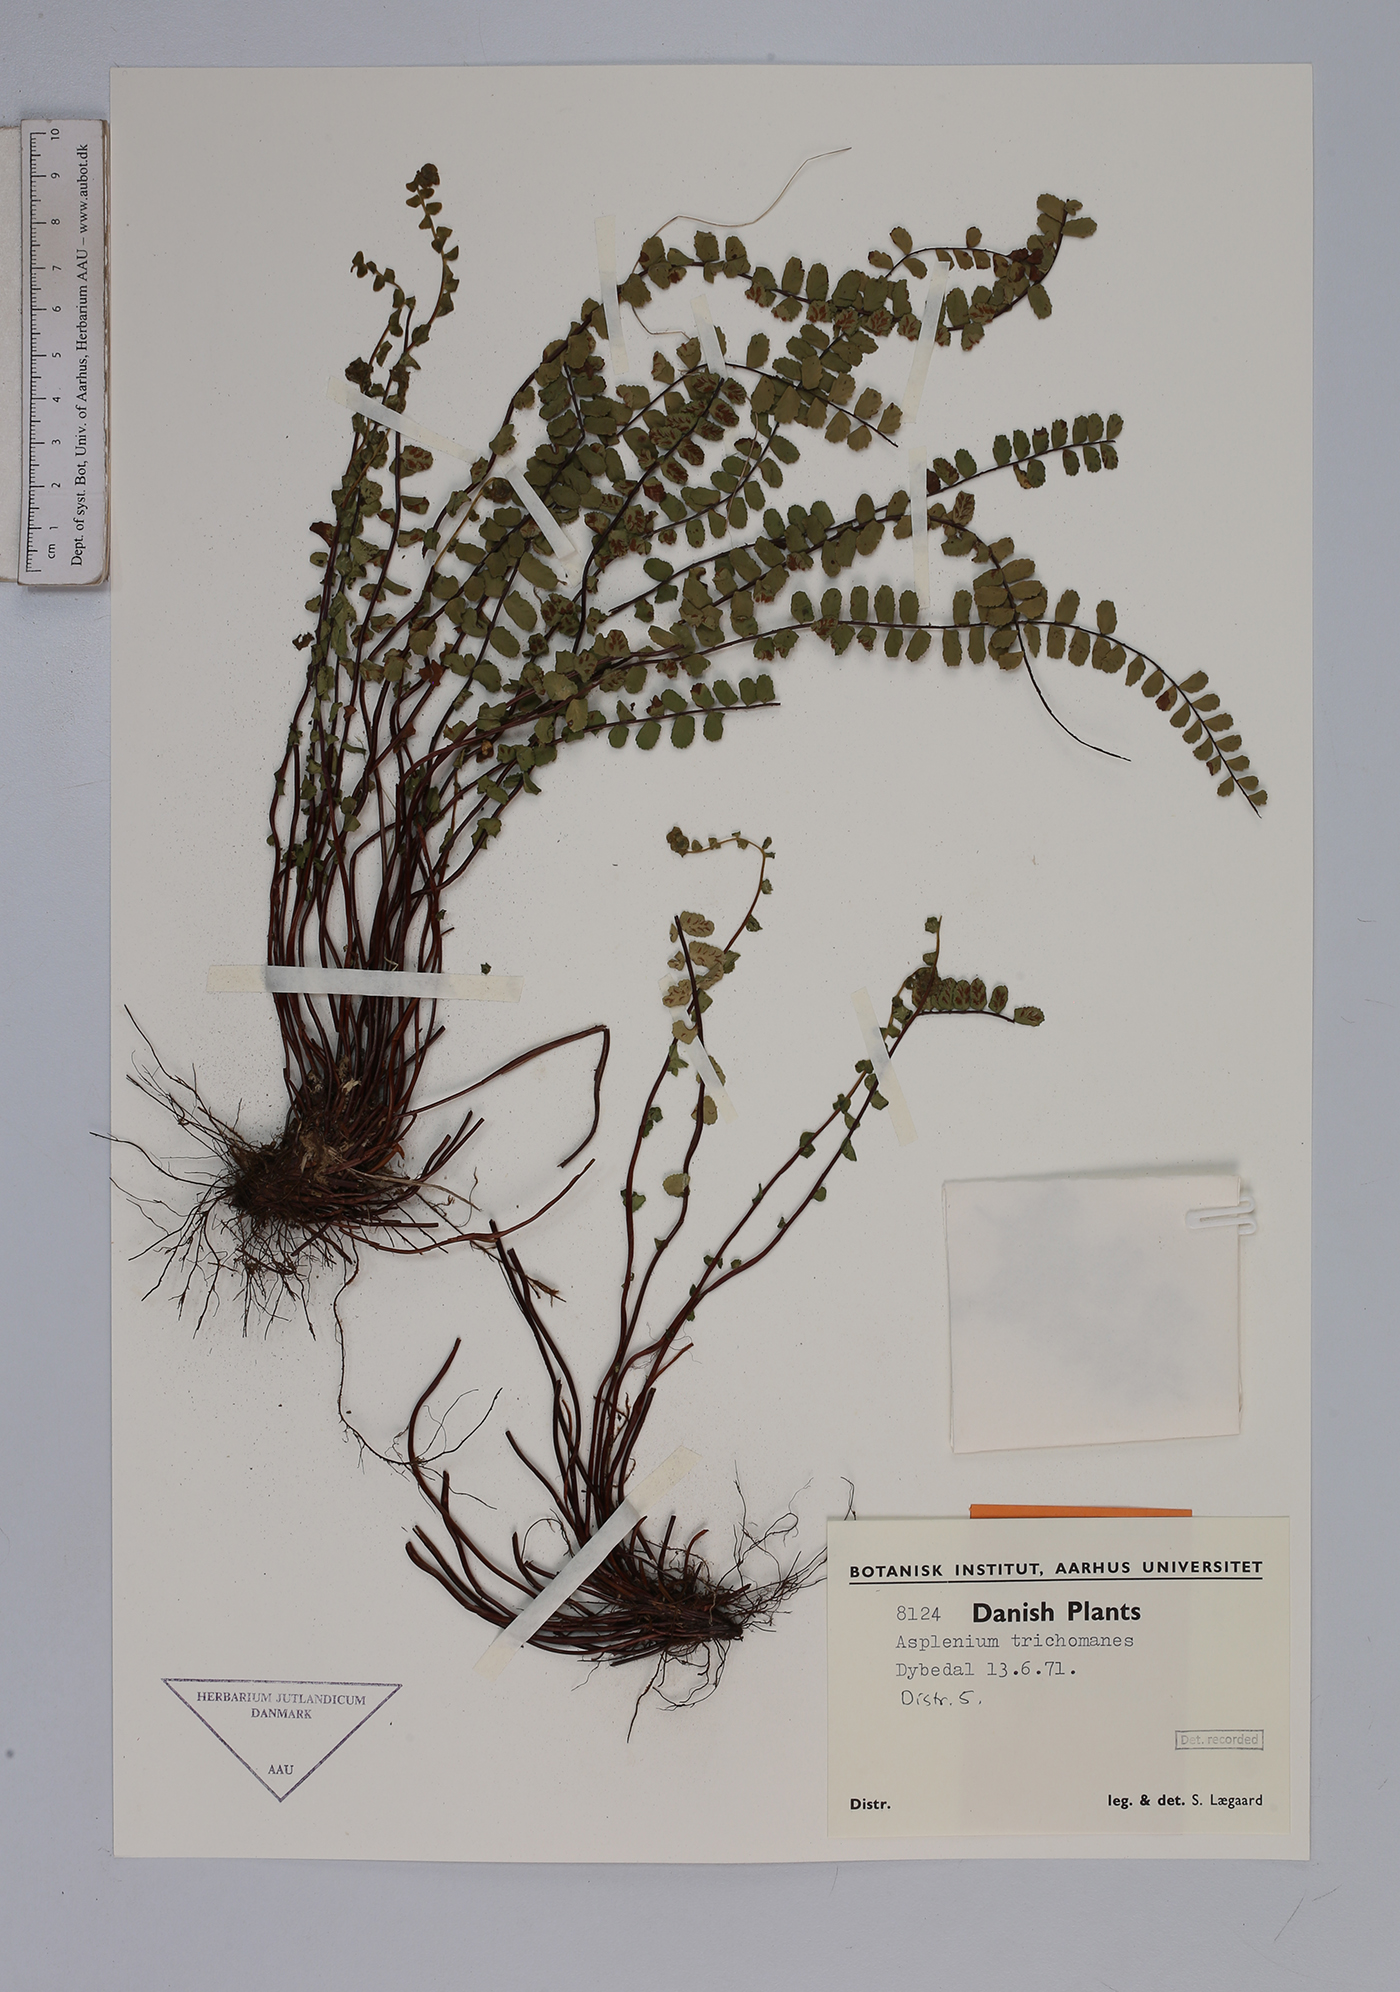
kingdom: Plantae
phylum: Tracheophyta
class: Polypodiopsida
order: Polypodiales
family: Aspleniaceae
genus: Asplenium
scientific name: Asplenium trichomanes
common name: Maidenhair spleenwort
